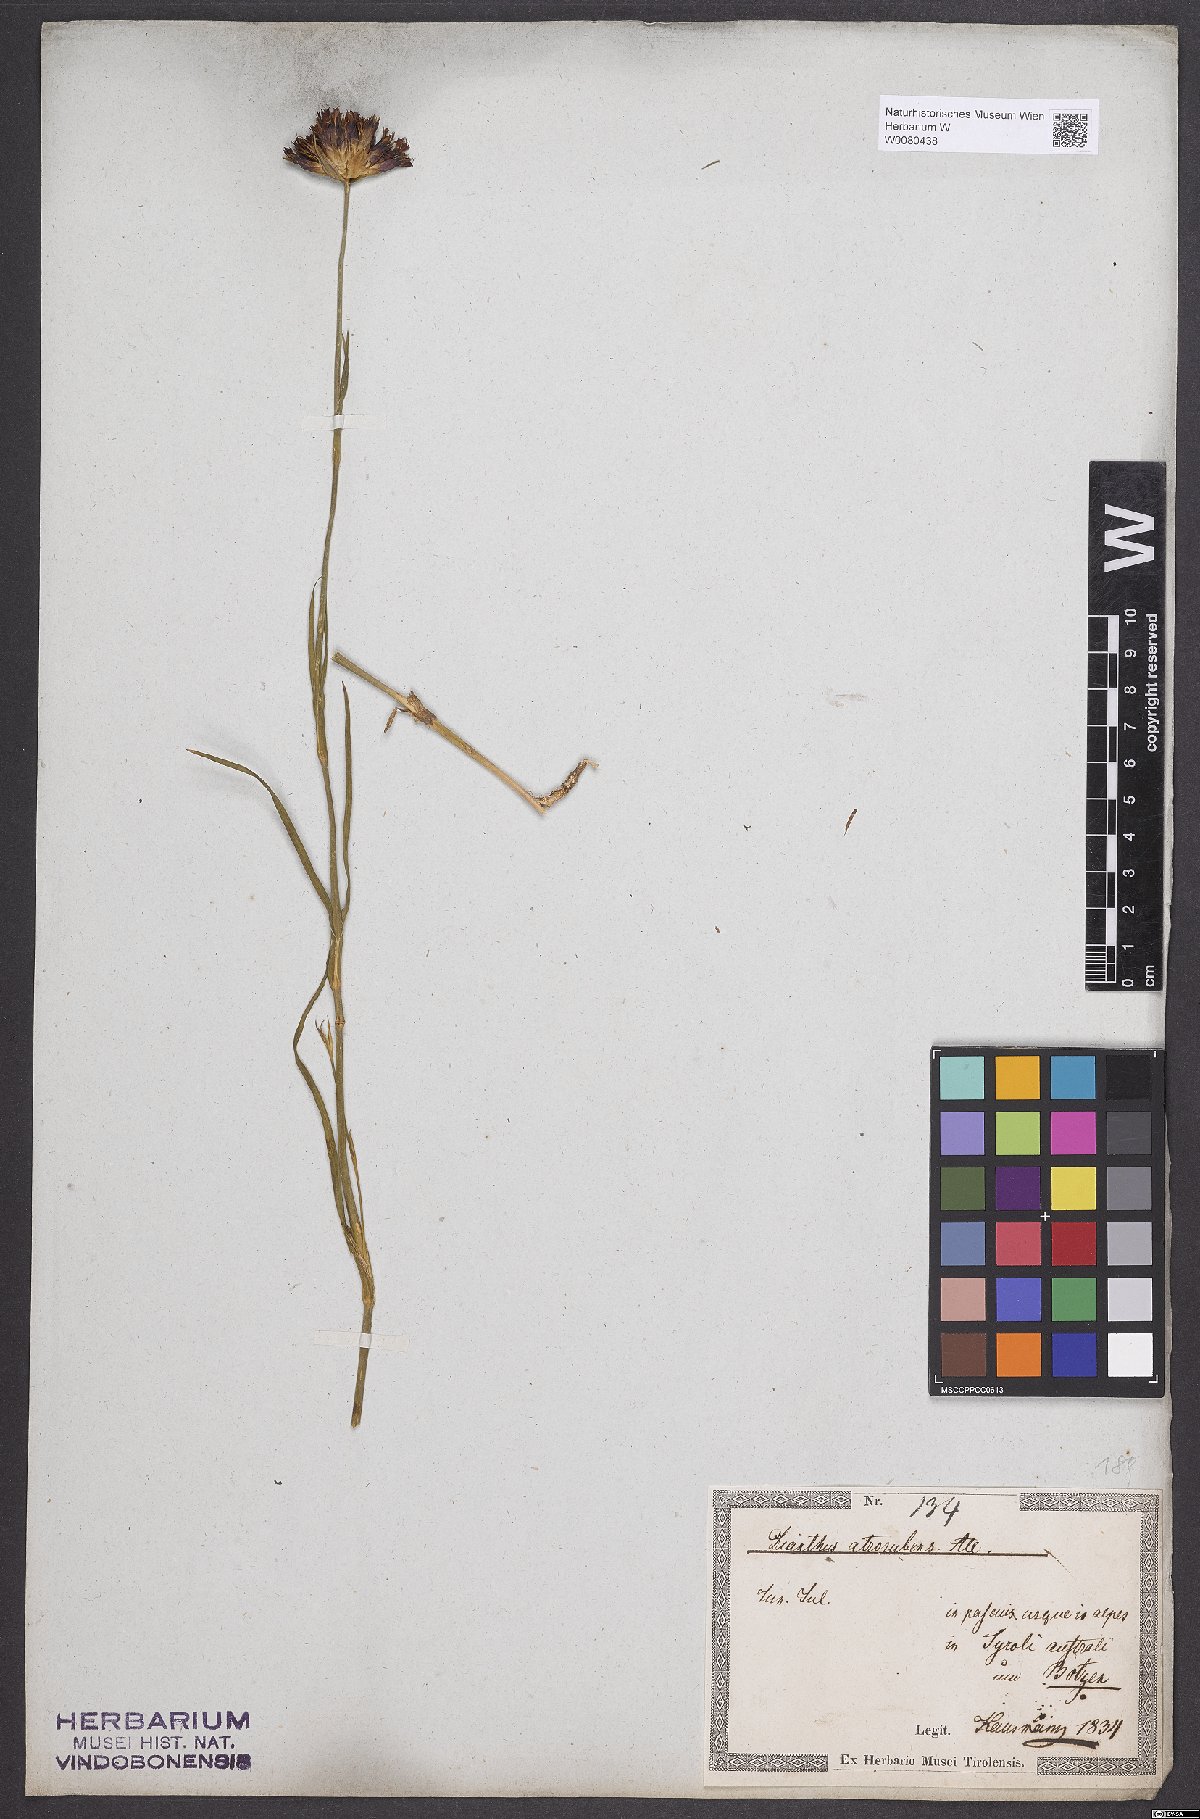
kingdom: Plantae
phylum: Tracheophyta
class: Magnoliopsida
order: Caryophyllales
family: Caryophyllaceae
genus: Dianthus
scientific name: Dianthus carthusianorum
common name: Carthusian pink
